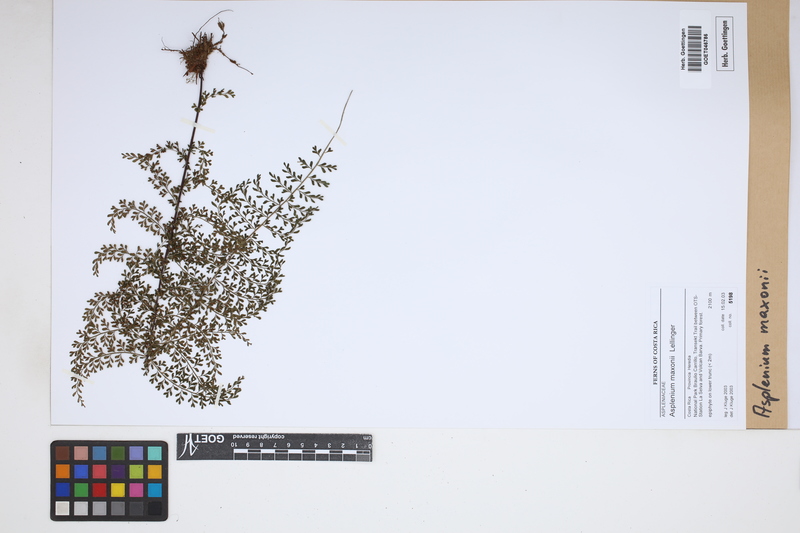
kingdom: Plantae
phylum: Tracheophyta
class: Polypodiopsida
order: Polypodiales
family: Aspleniaceae
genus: Asplenium
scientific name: Asplenium maxonii
